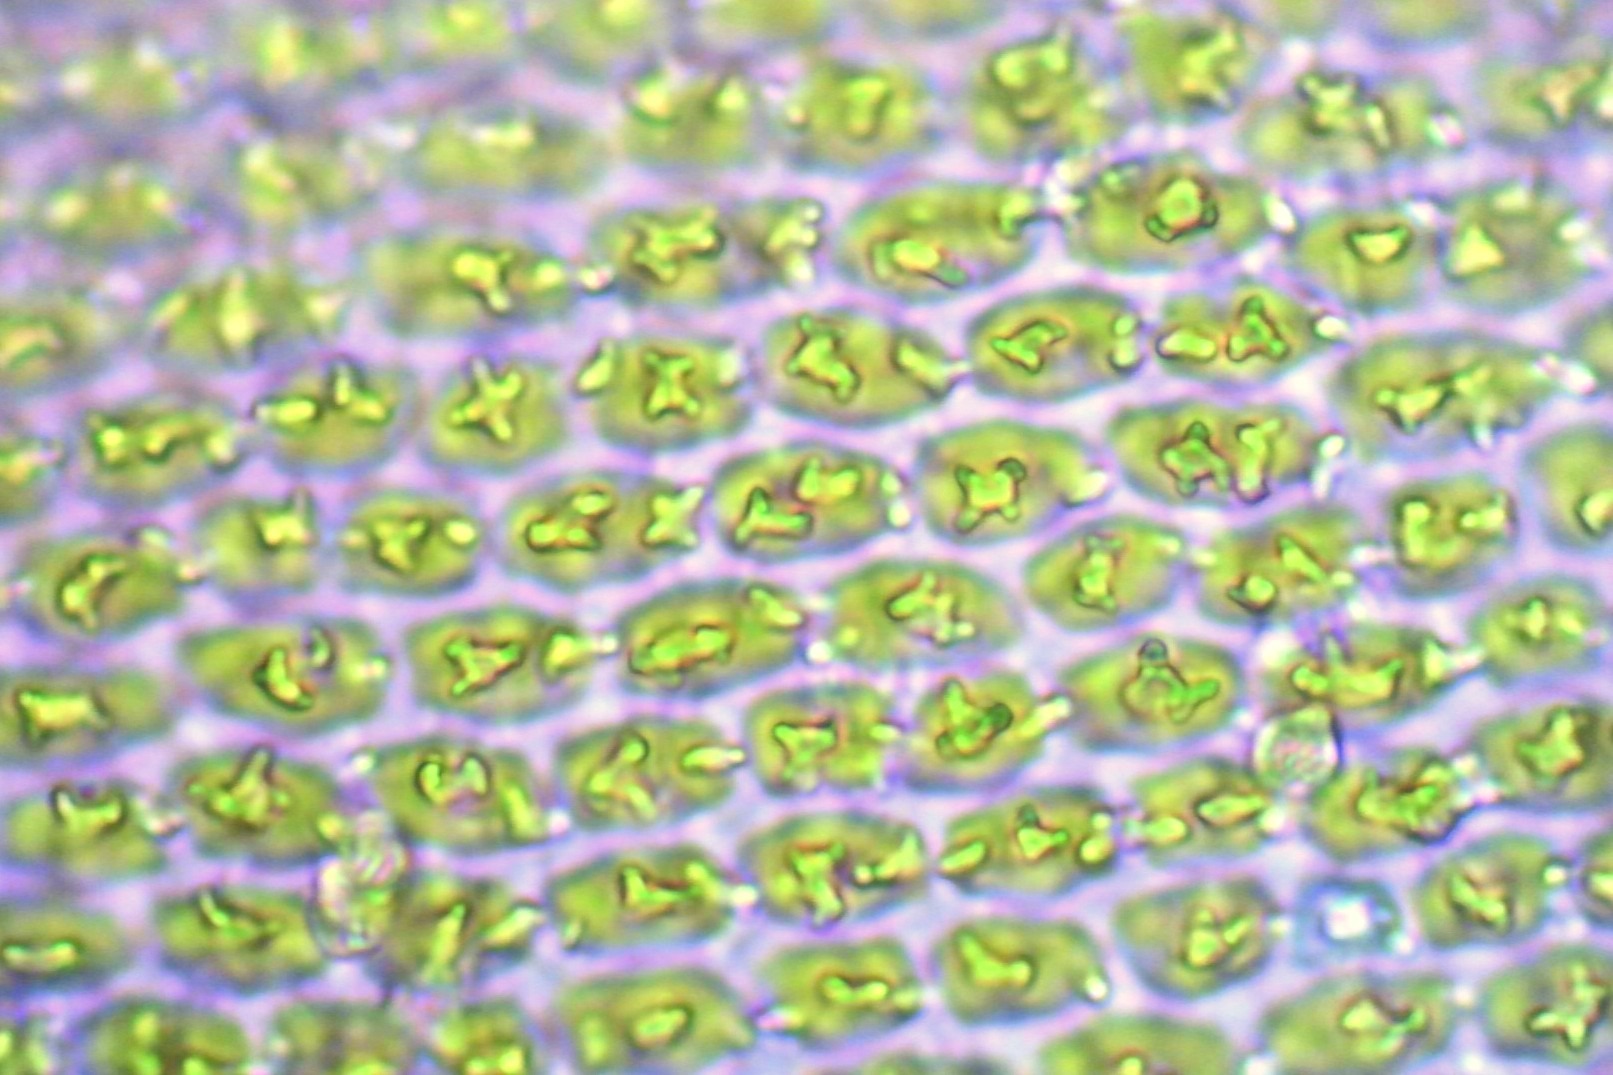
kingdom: Plantae
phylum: Bryophyta
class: Bryopsida
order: Hedwigiales
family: Hedwigiaceae
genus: Hedwigia
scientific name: Hedwigia ciliata
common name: Hvidspidset hedwigia
